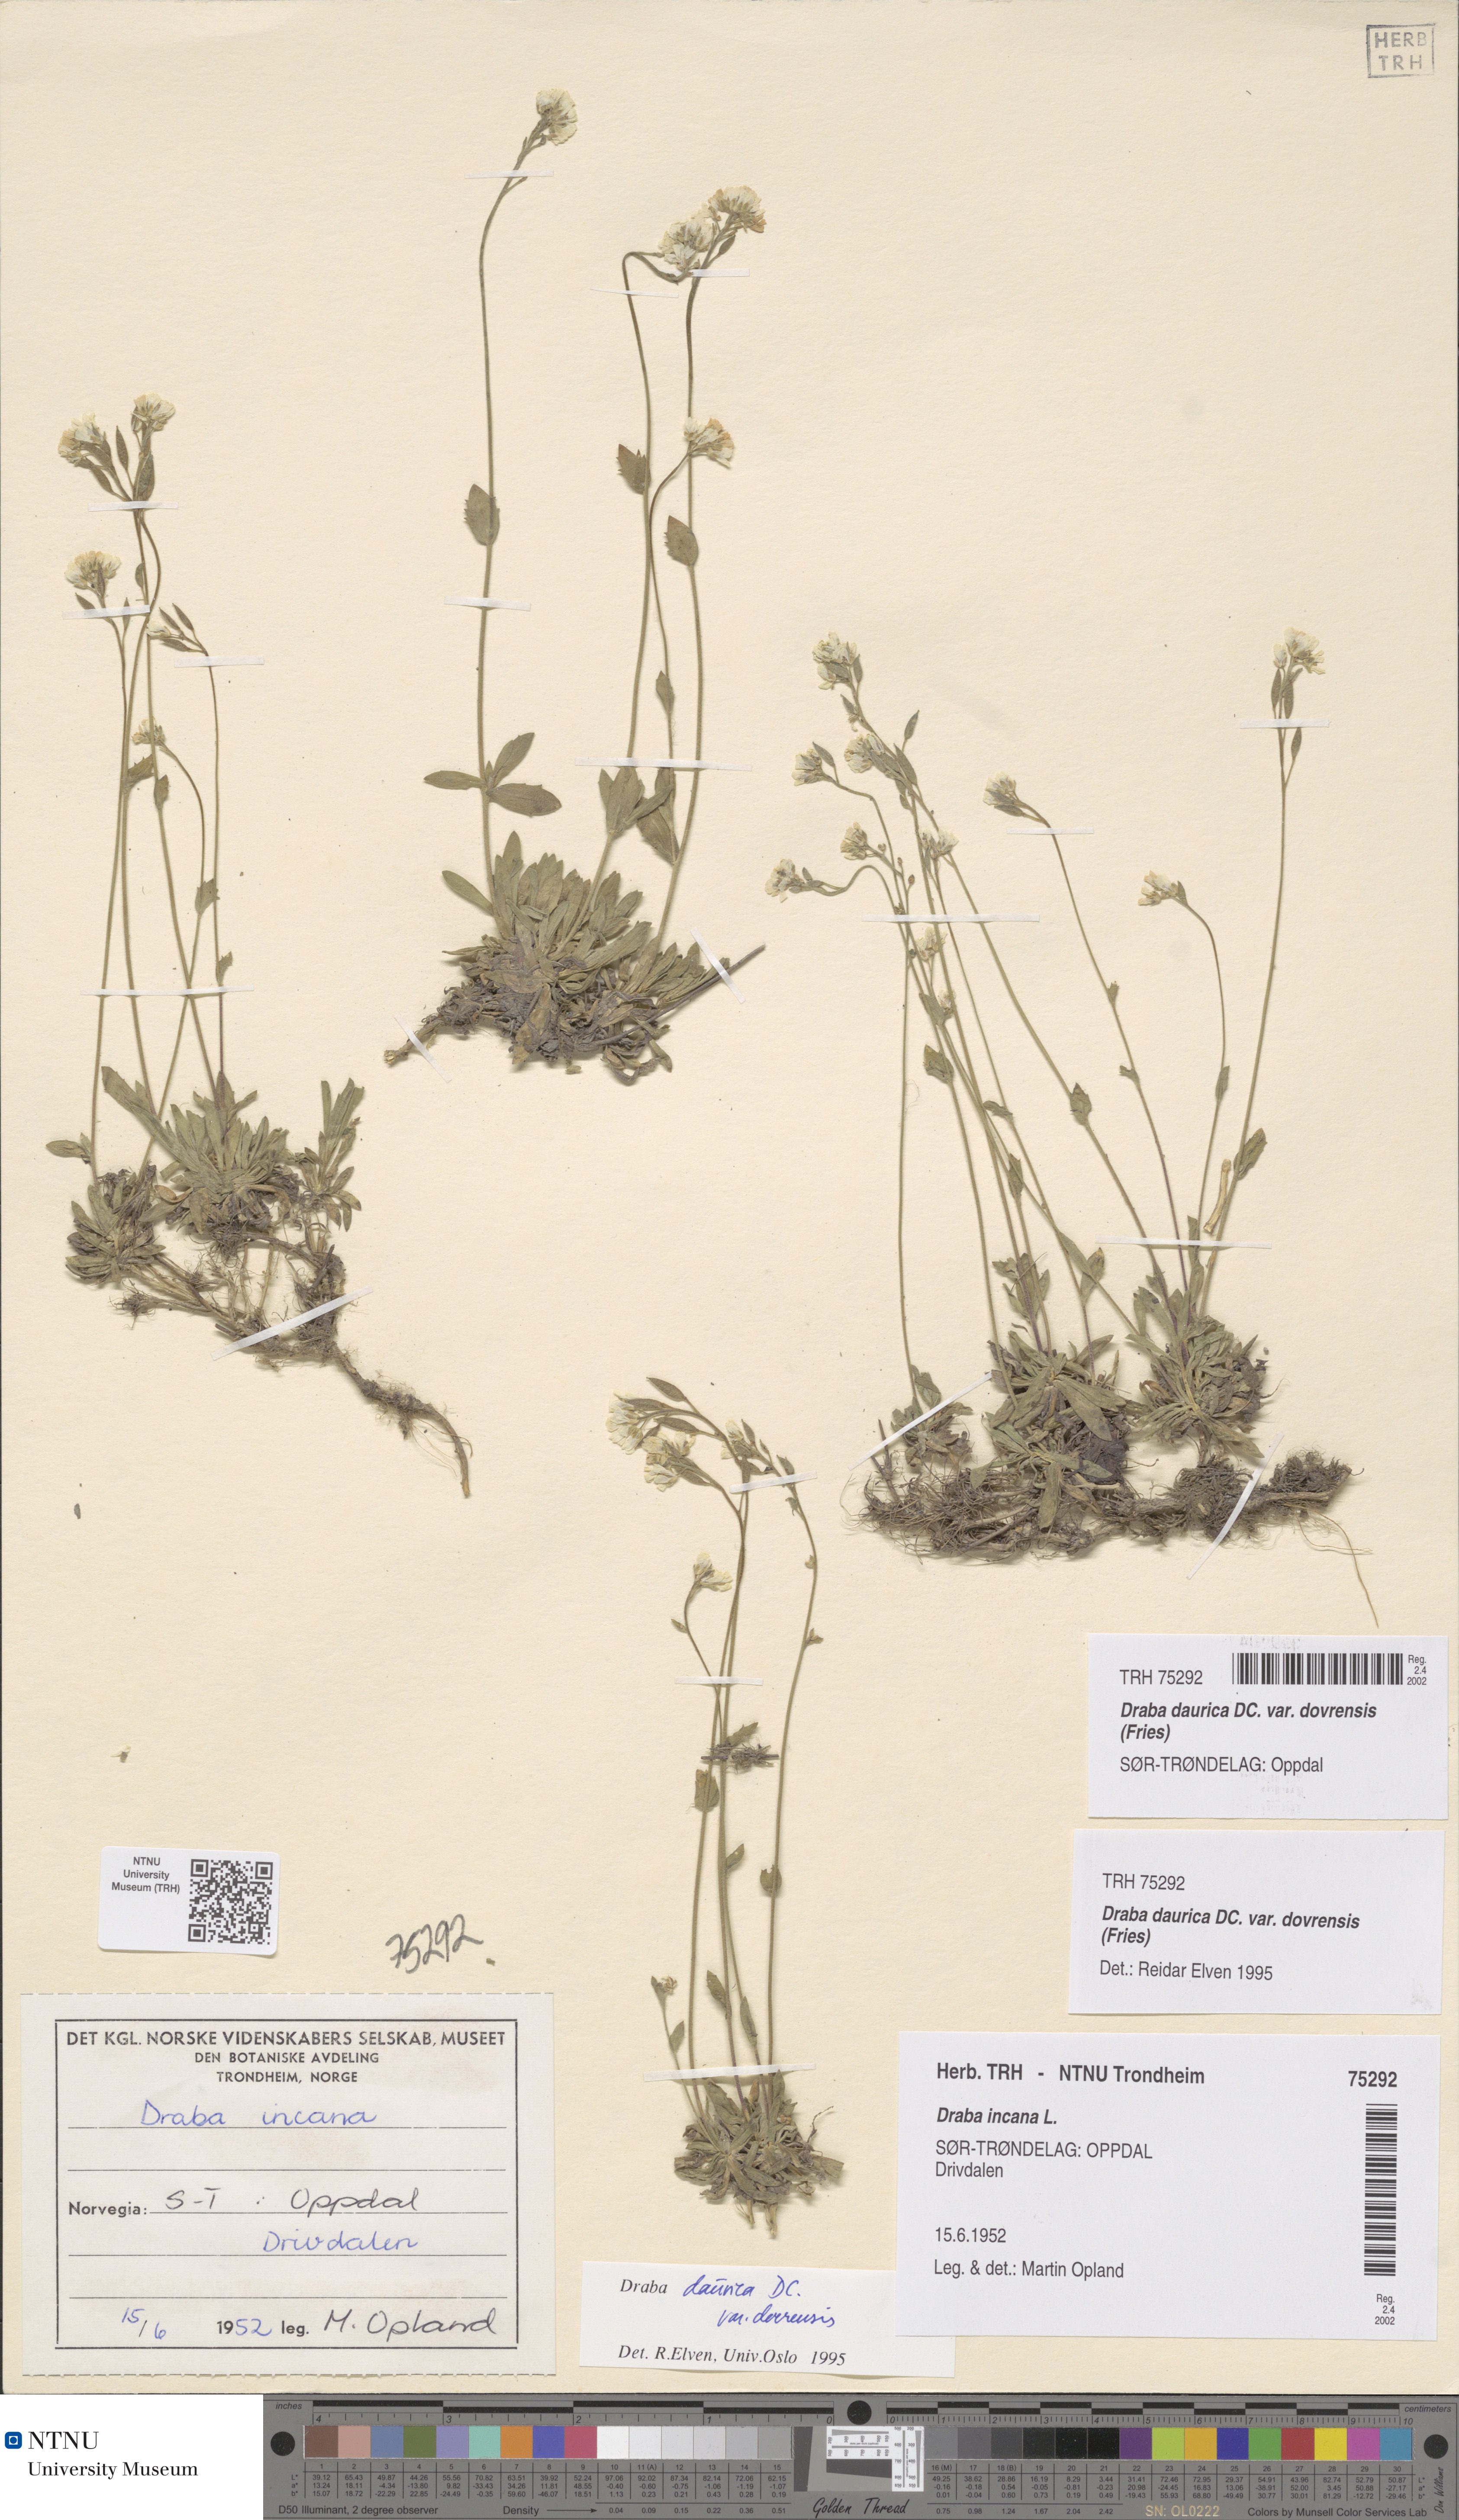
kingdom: Plantae
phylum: Tracheophyta
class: Magnoliopsida
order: Brassicales
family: Brassicaceae
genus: Draba
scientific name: Draba glabella
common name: Glaucous draba
